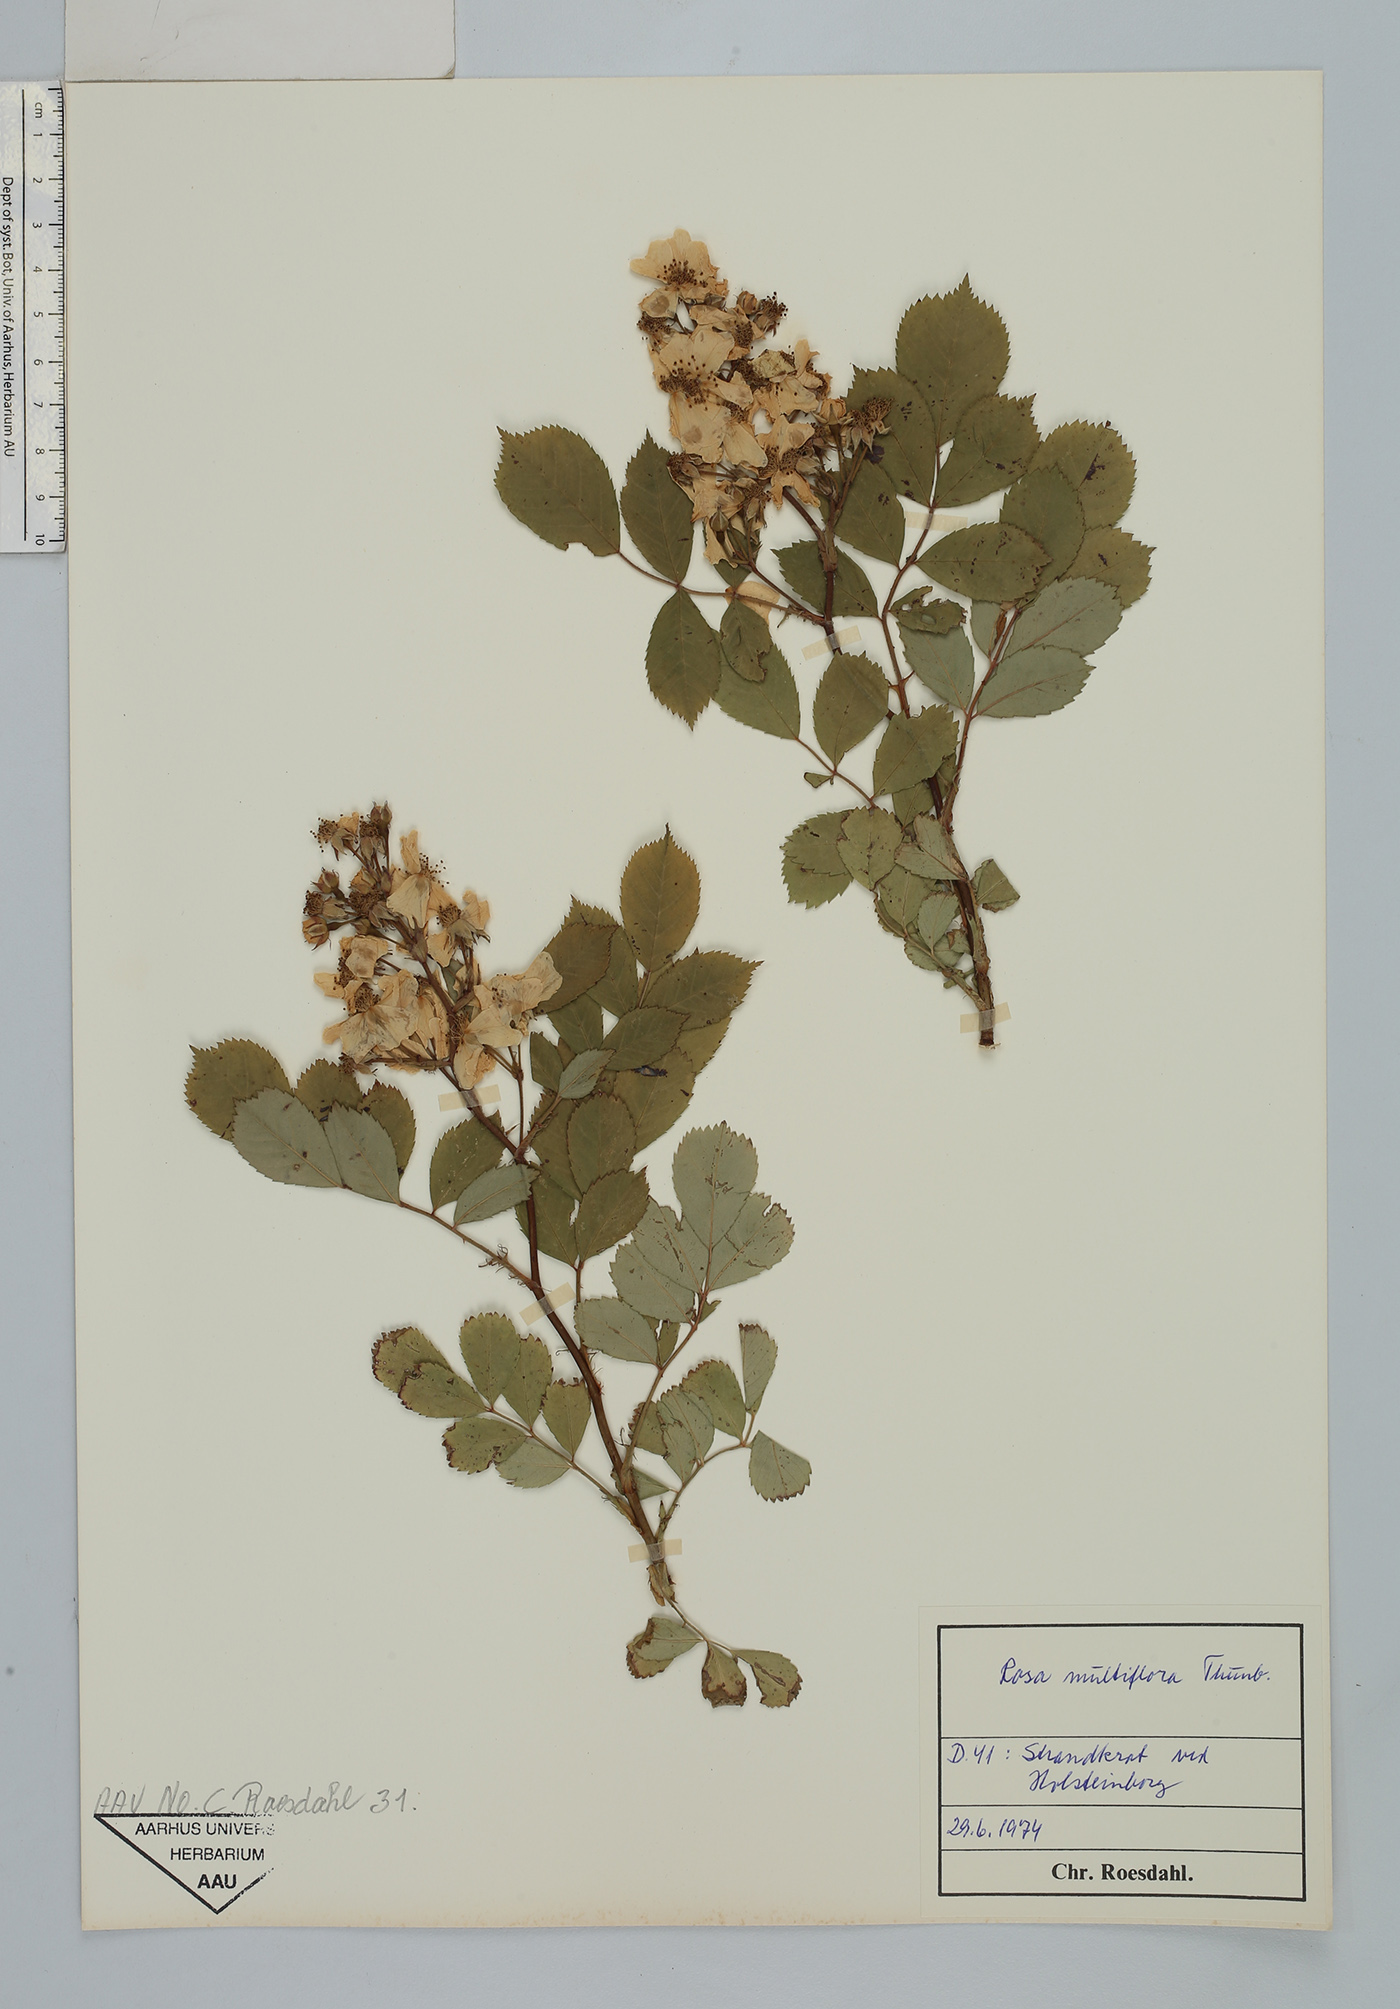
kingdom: Plantae
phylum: Tracheophyta
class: Magnoliopsida
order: Rosales
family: Rosaceae
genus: Rosa
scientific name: Rosa multiflora
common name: Multiflora rose
